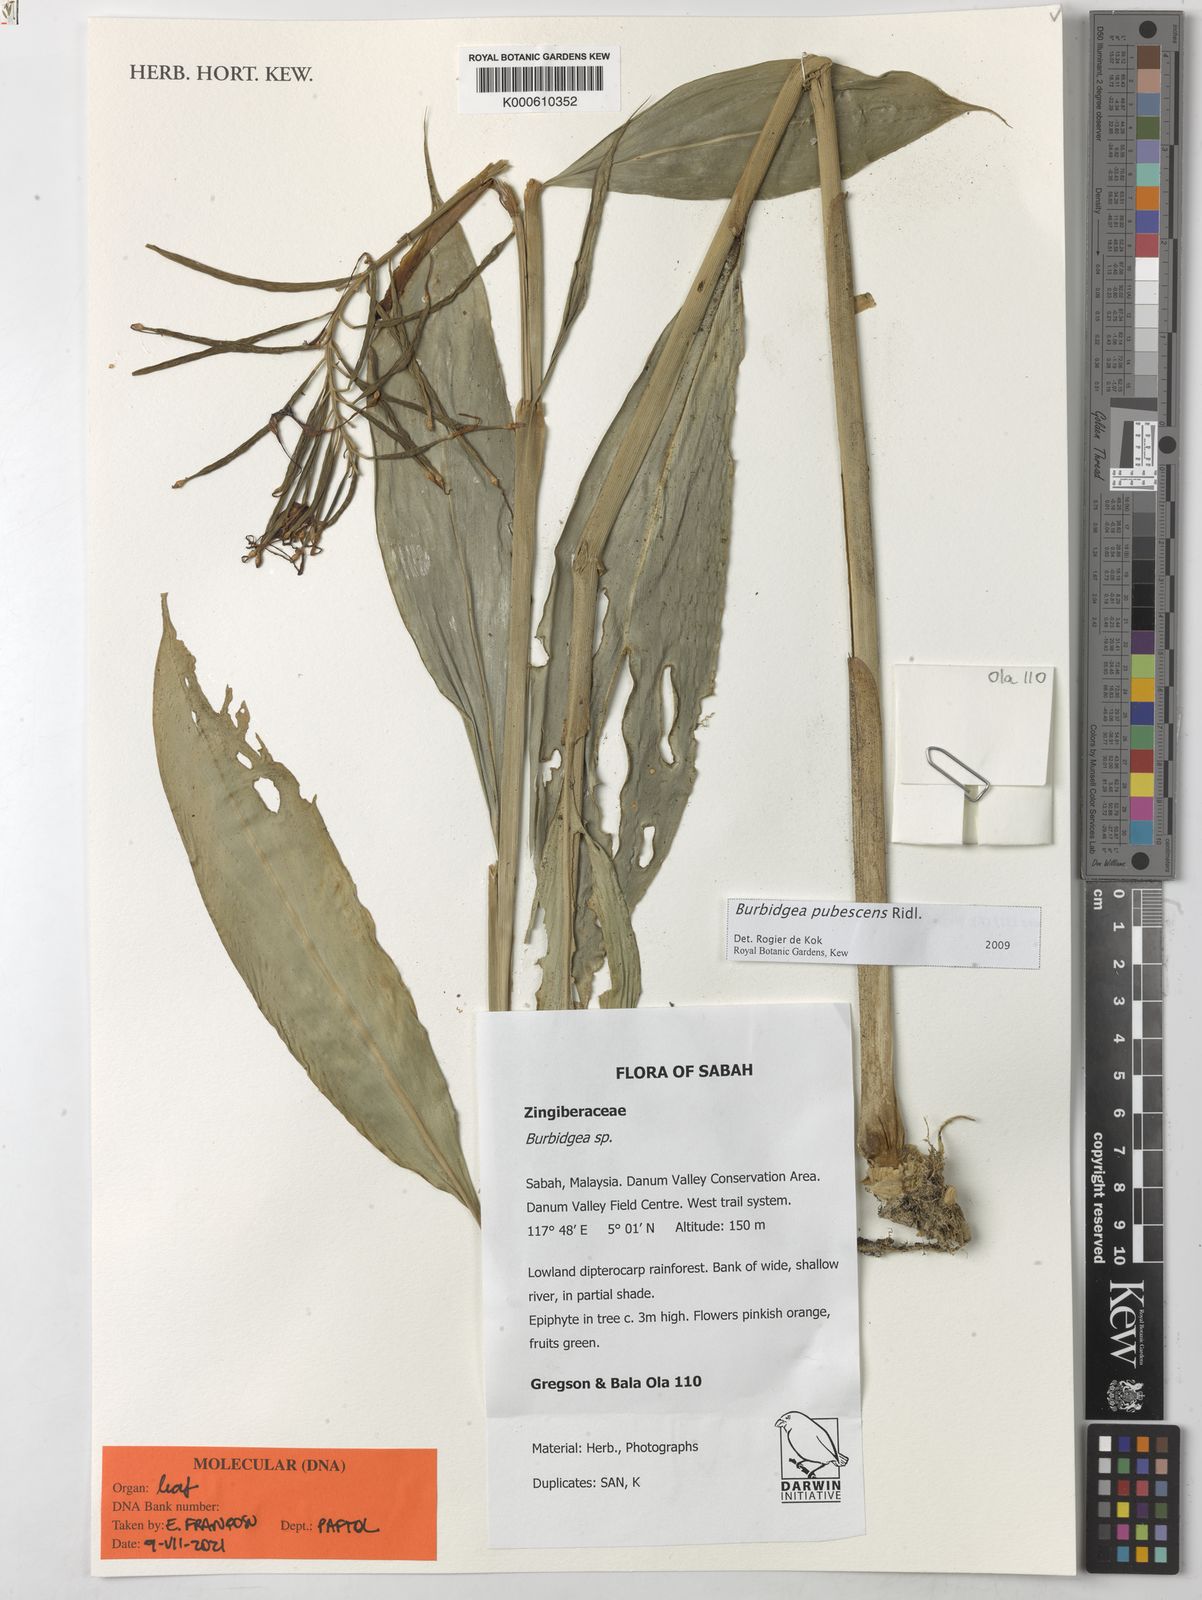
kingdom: Plantae
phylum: Tracheophyta
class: Liliopsida
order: Zingiberales
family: Zingiberaceae
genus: Burbidgea
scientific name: Burbidgea schizocheila
